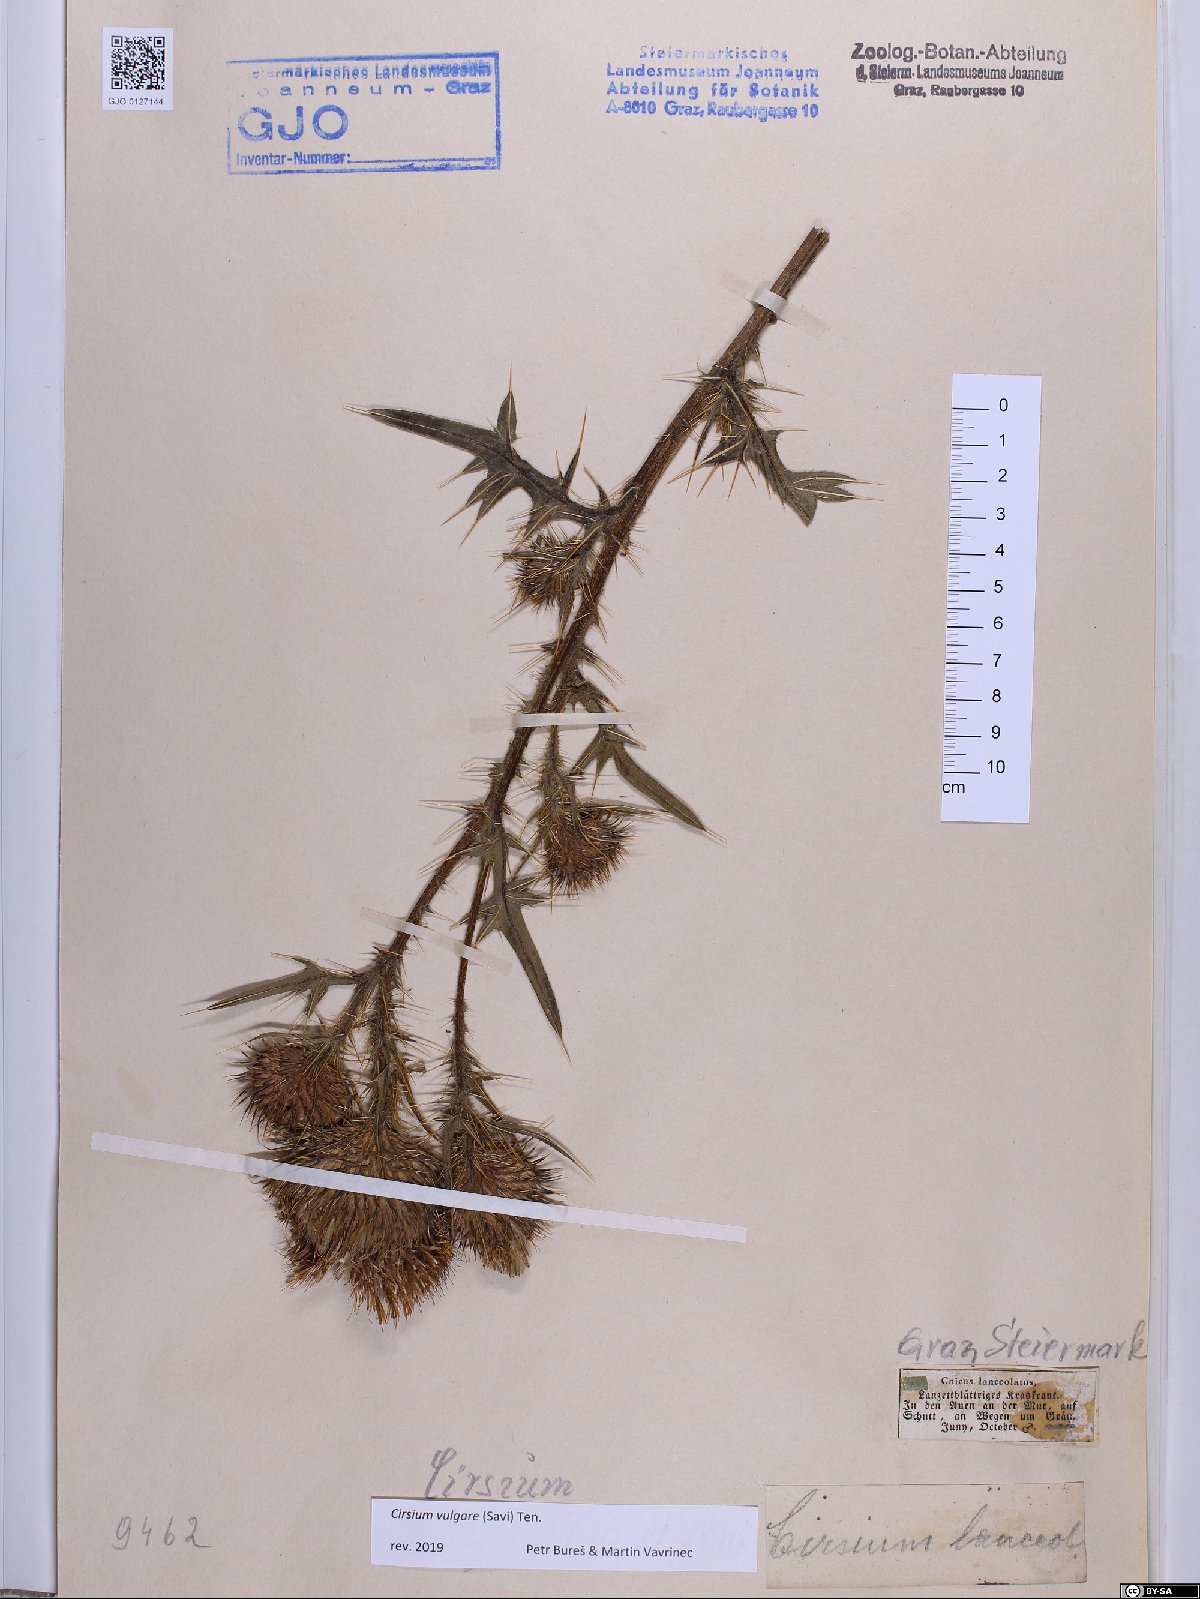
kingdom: Plantae
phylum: Tracheophyta
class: Magnoliopsida
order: Asterales
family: Asteraceae
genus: Cirsium
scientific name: Cirsium vulgare
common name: Bull thistle
